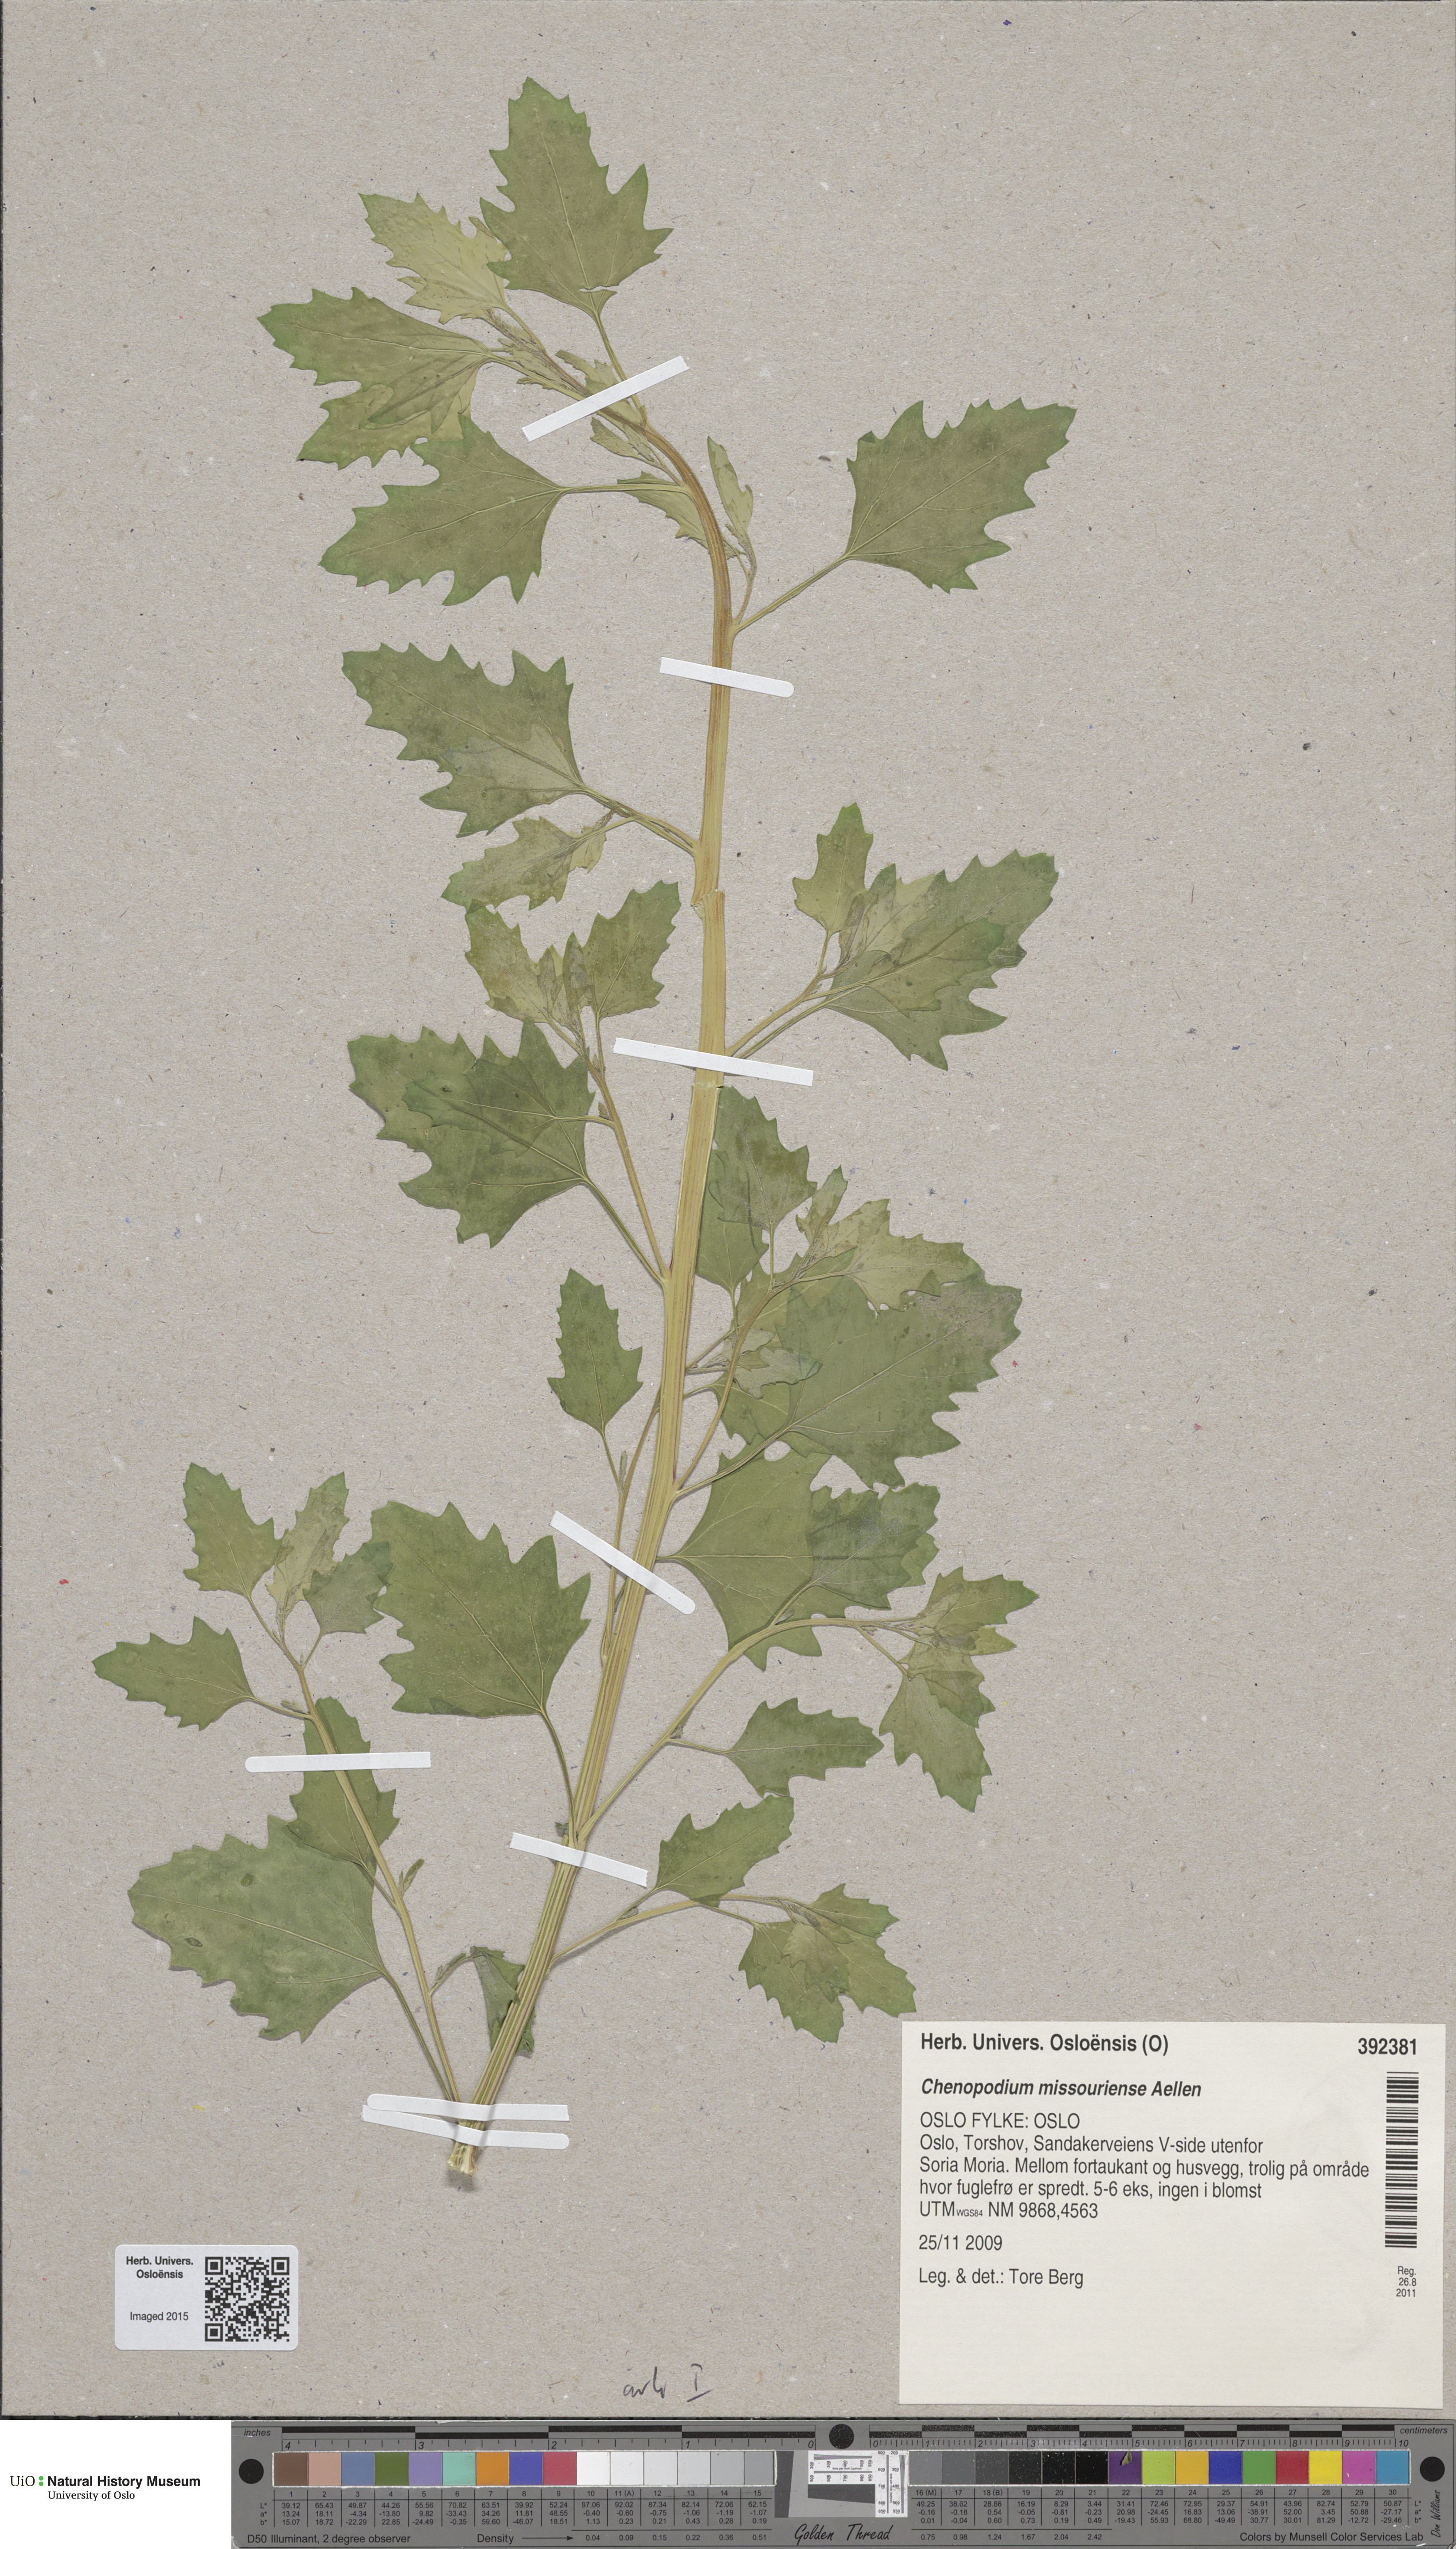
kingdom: Plantae
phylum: Tracheophyta
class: Magnoliopsida
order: Caryophyllales
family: Amaranthaceae
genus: Chenopodium
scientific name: Chenopodium album
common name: Fat-hen
